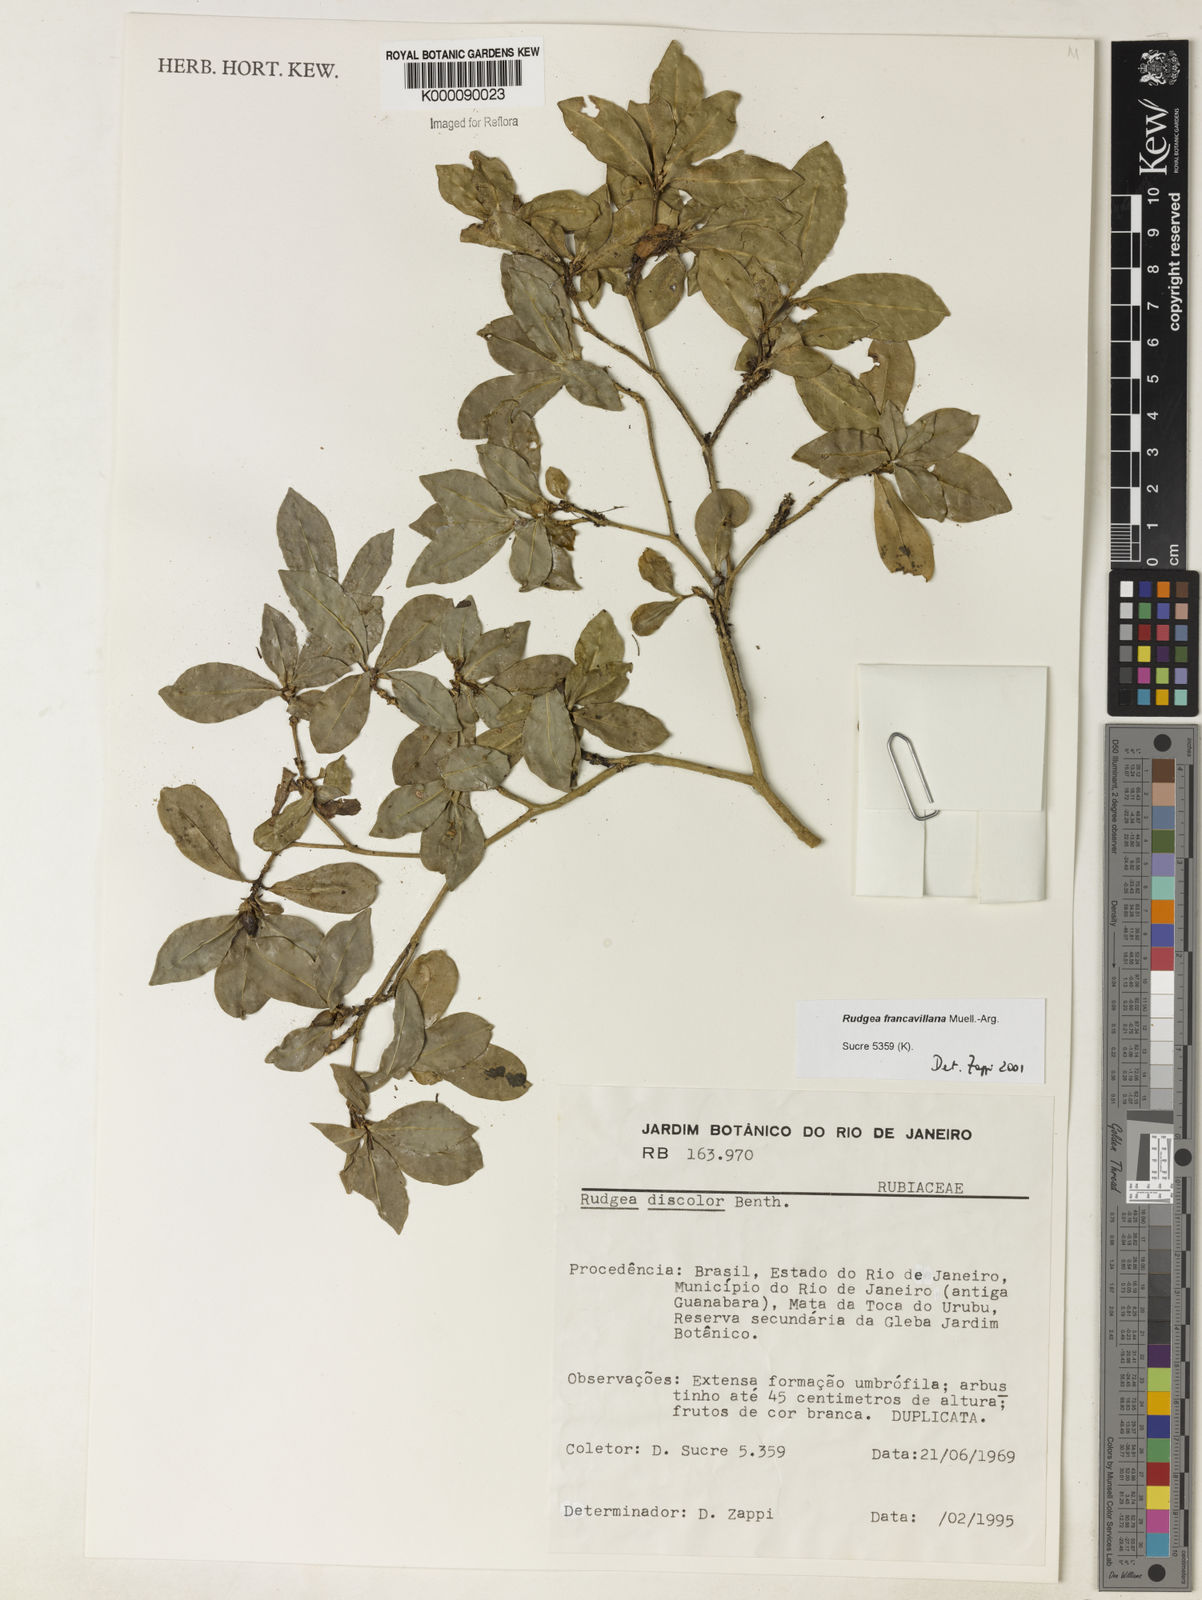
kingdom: Plantae
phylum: Tracheophyta
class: Magnoliopsida
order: Gentianales
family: Rubiaceae
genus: Rudgea
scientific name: Rudgea francavillana
